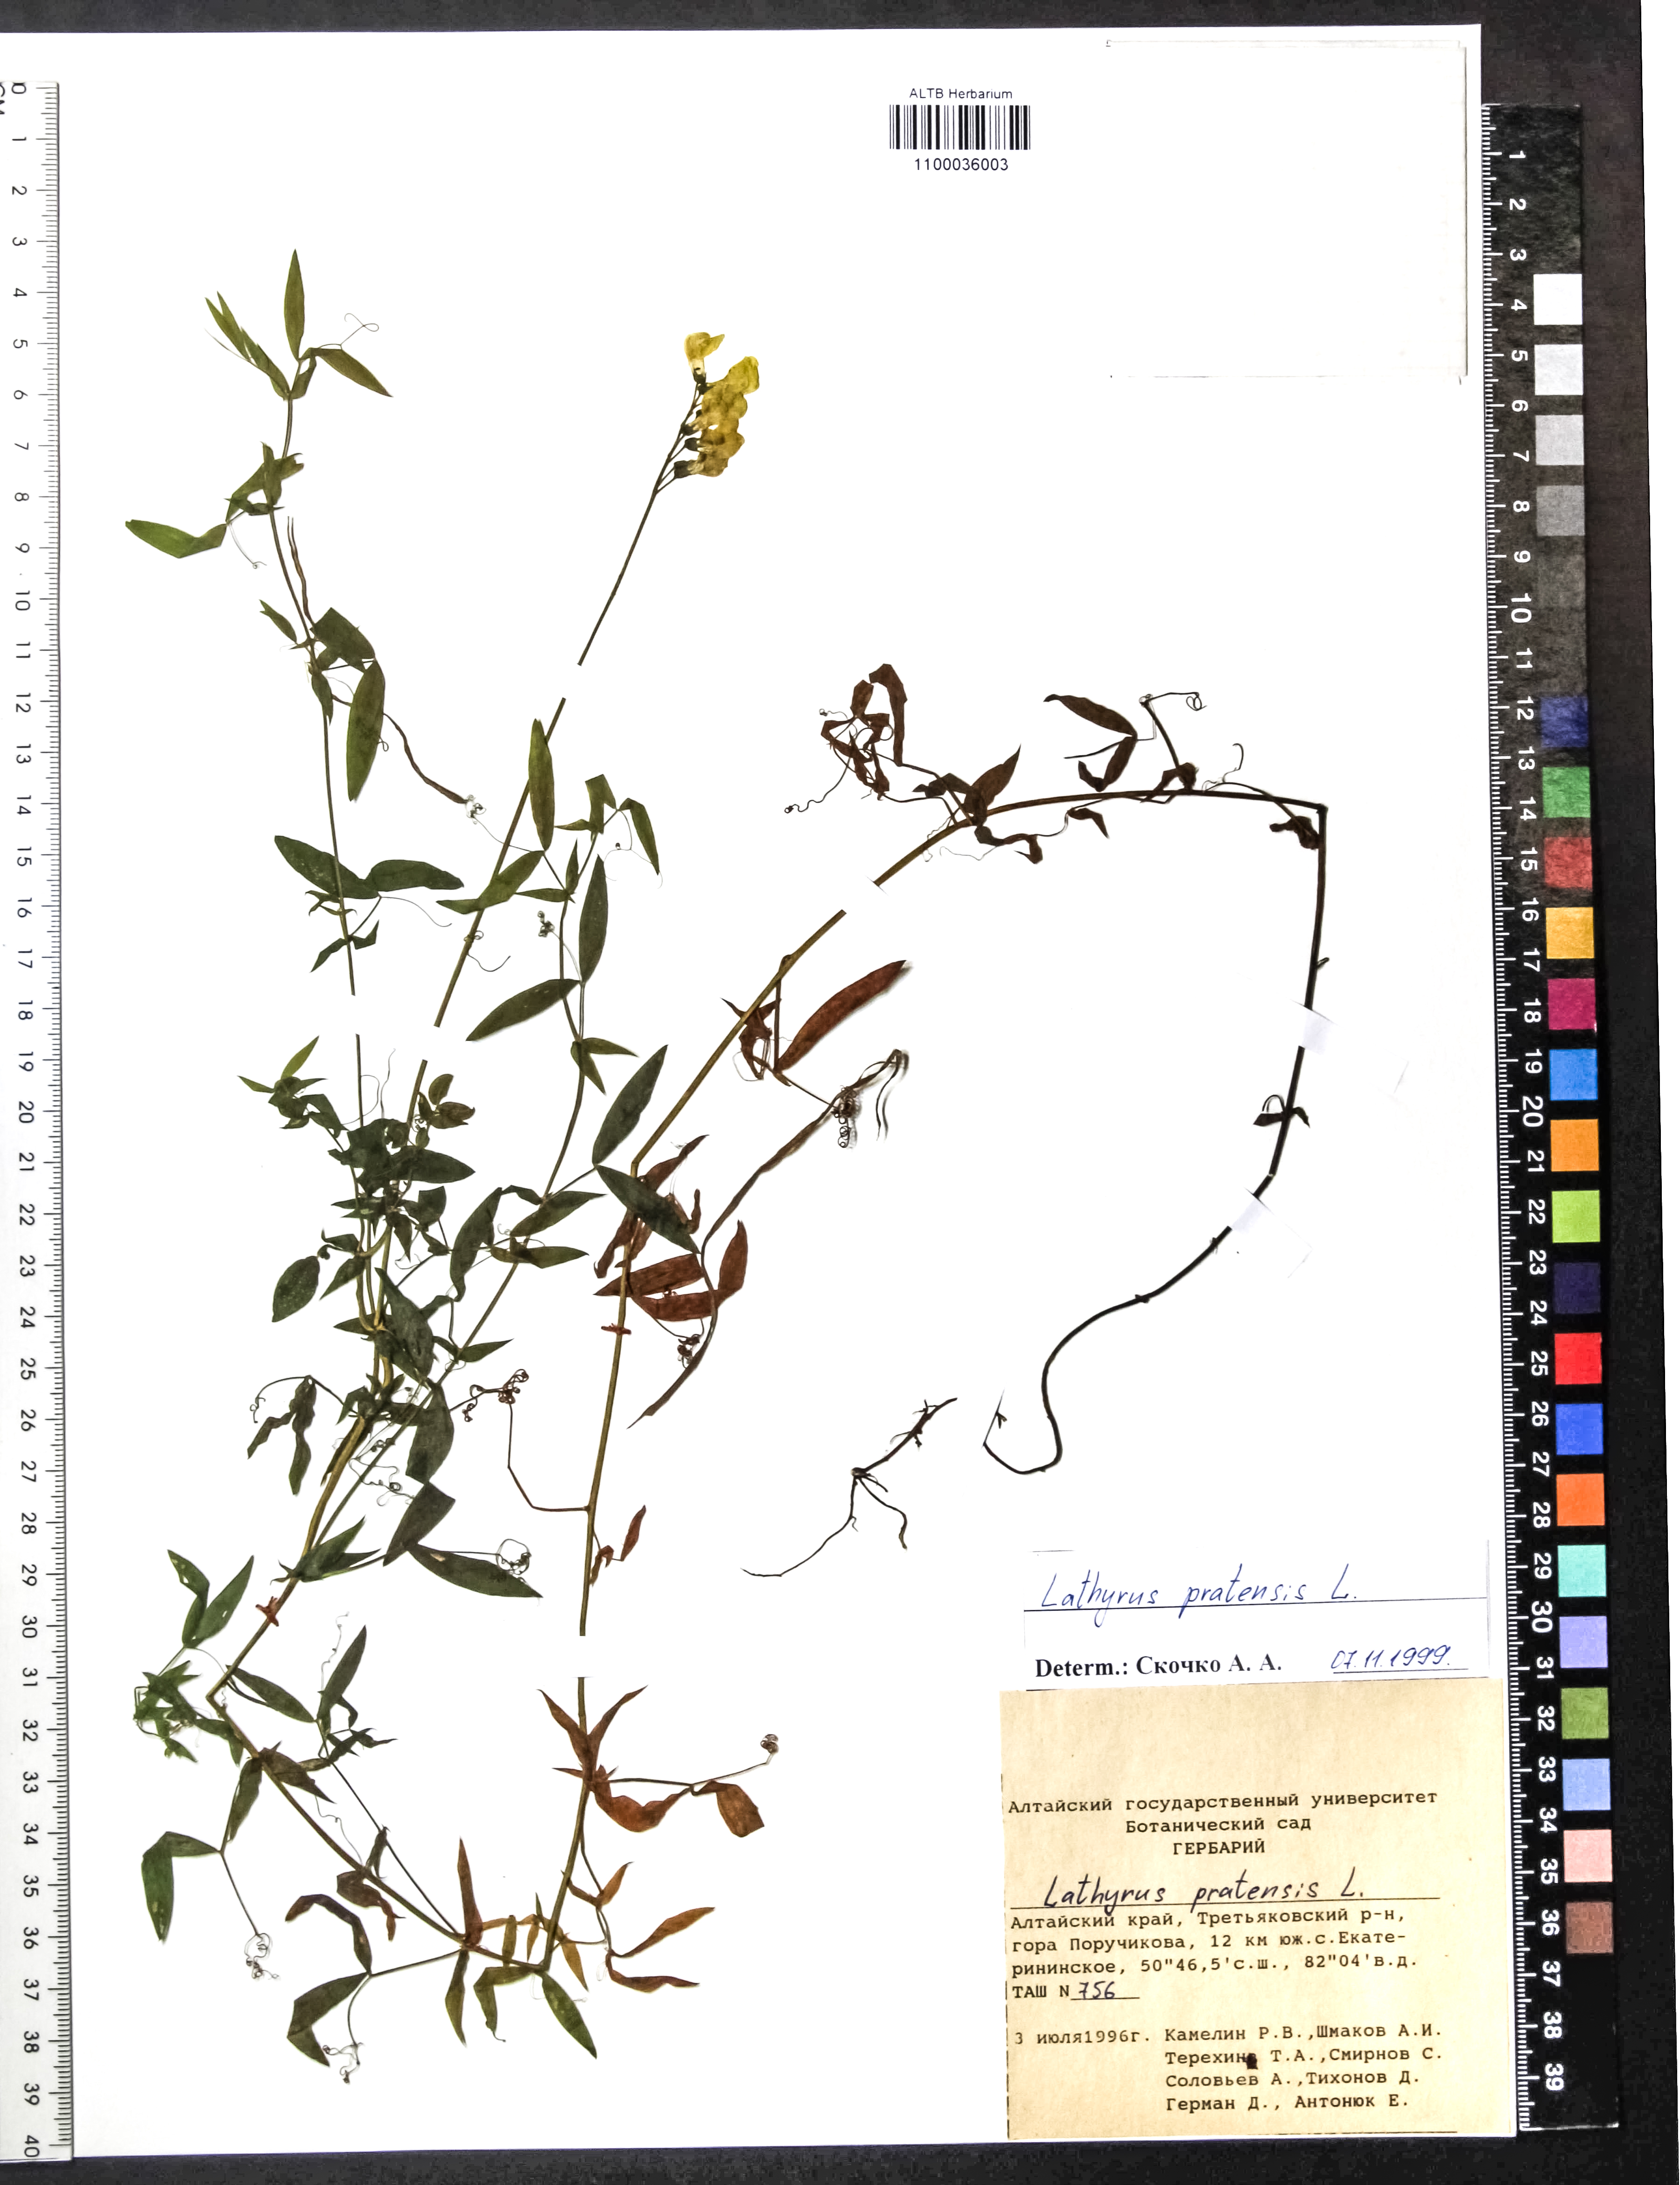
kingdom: Plantae
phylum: Tracheophyta
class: Magnoliopsida
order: Fabales
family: Fabaceae
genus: Lathyrus
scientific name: Lathyrus pratensis
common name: Meadow vetchling
